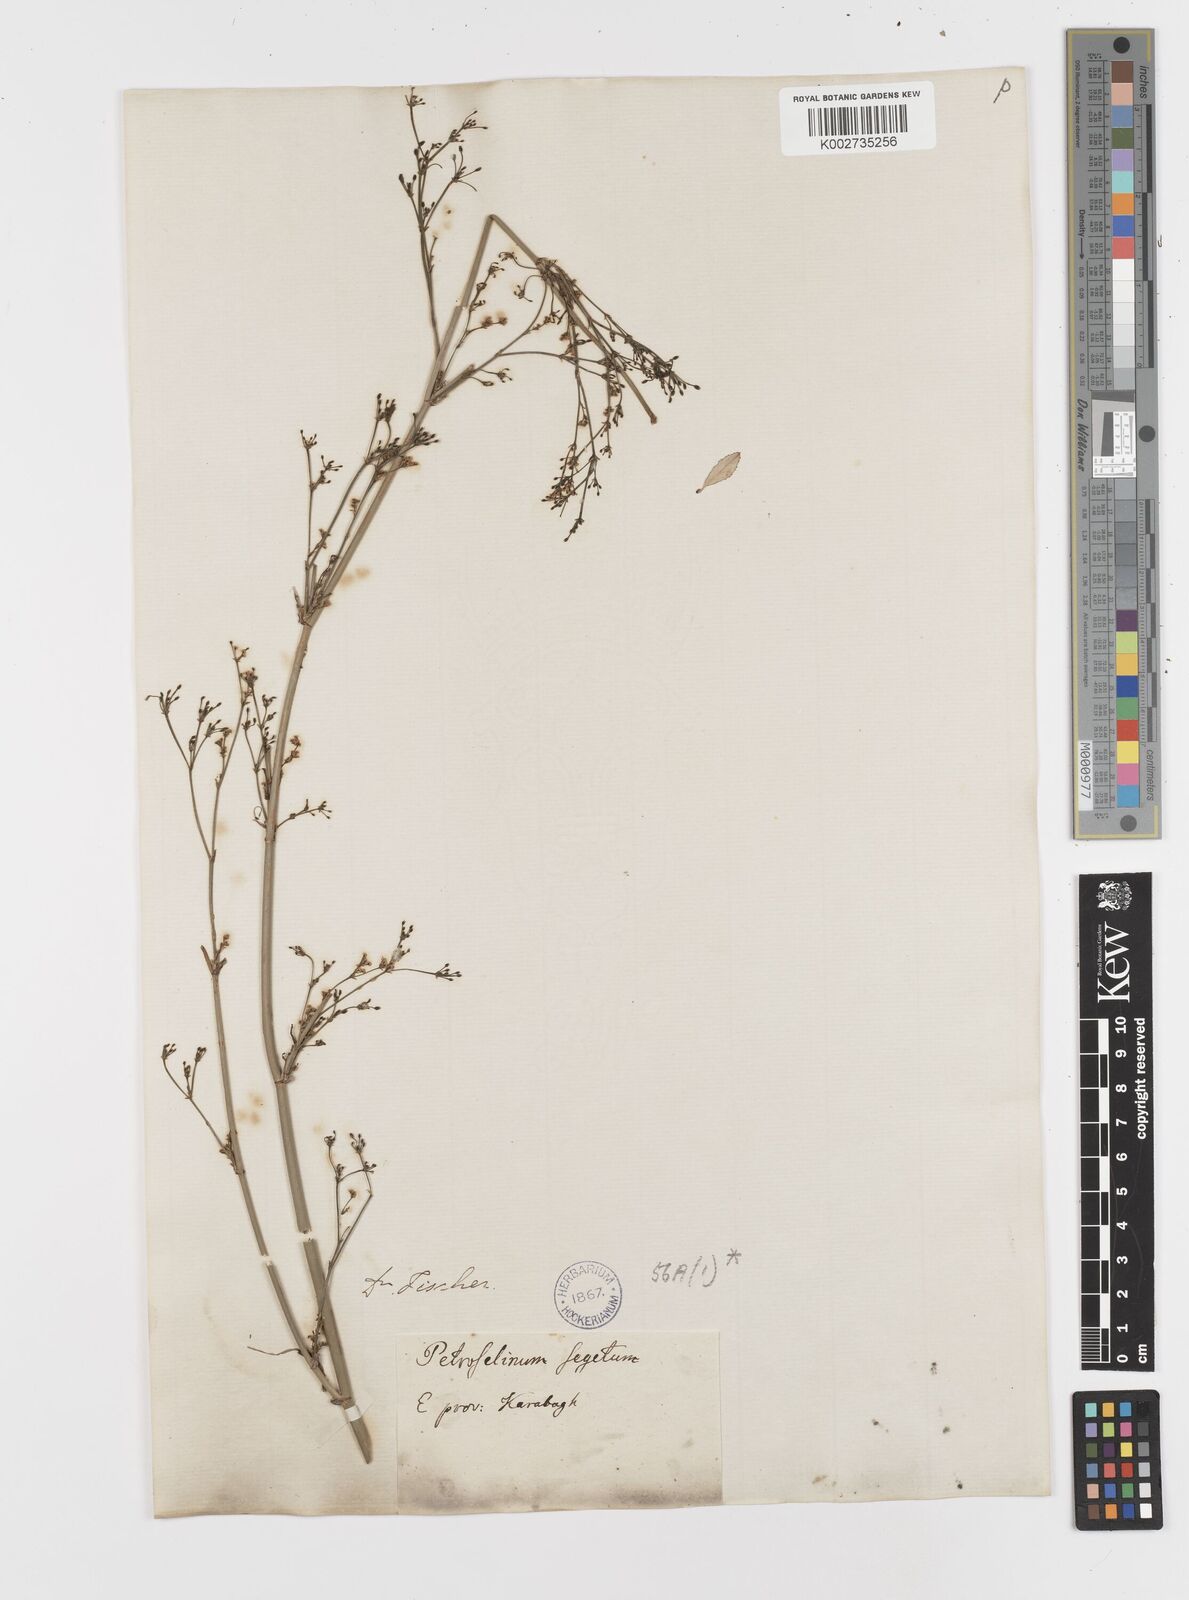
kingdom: Plantae
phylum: Tracheophyta
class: Magnoliopsida
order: Apiales
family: Apiaceae
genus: Froriepia
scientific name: Froriepia subpinnata
